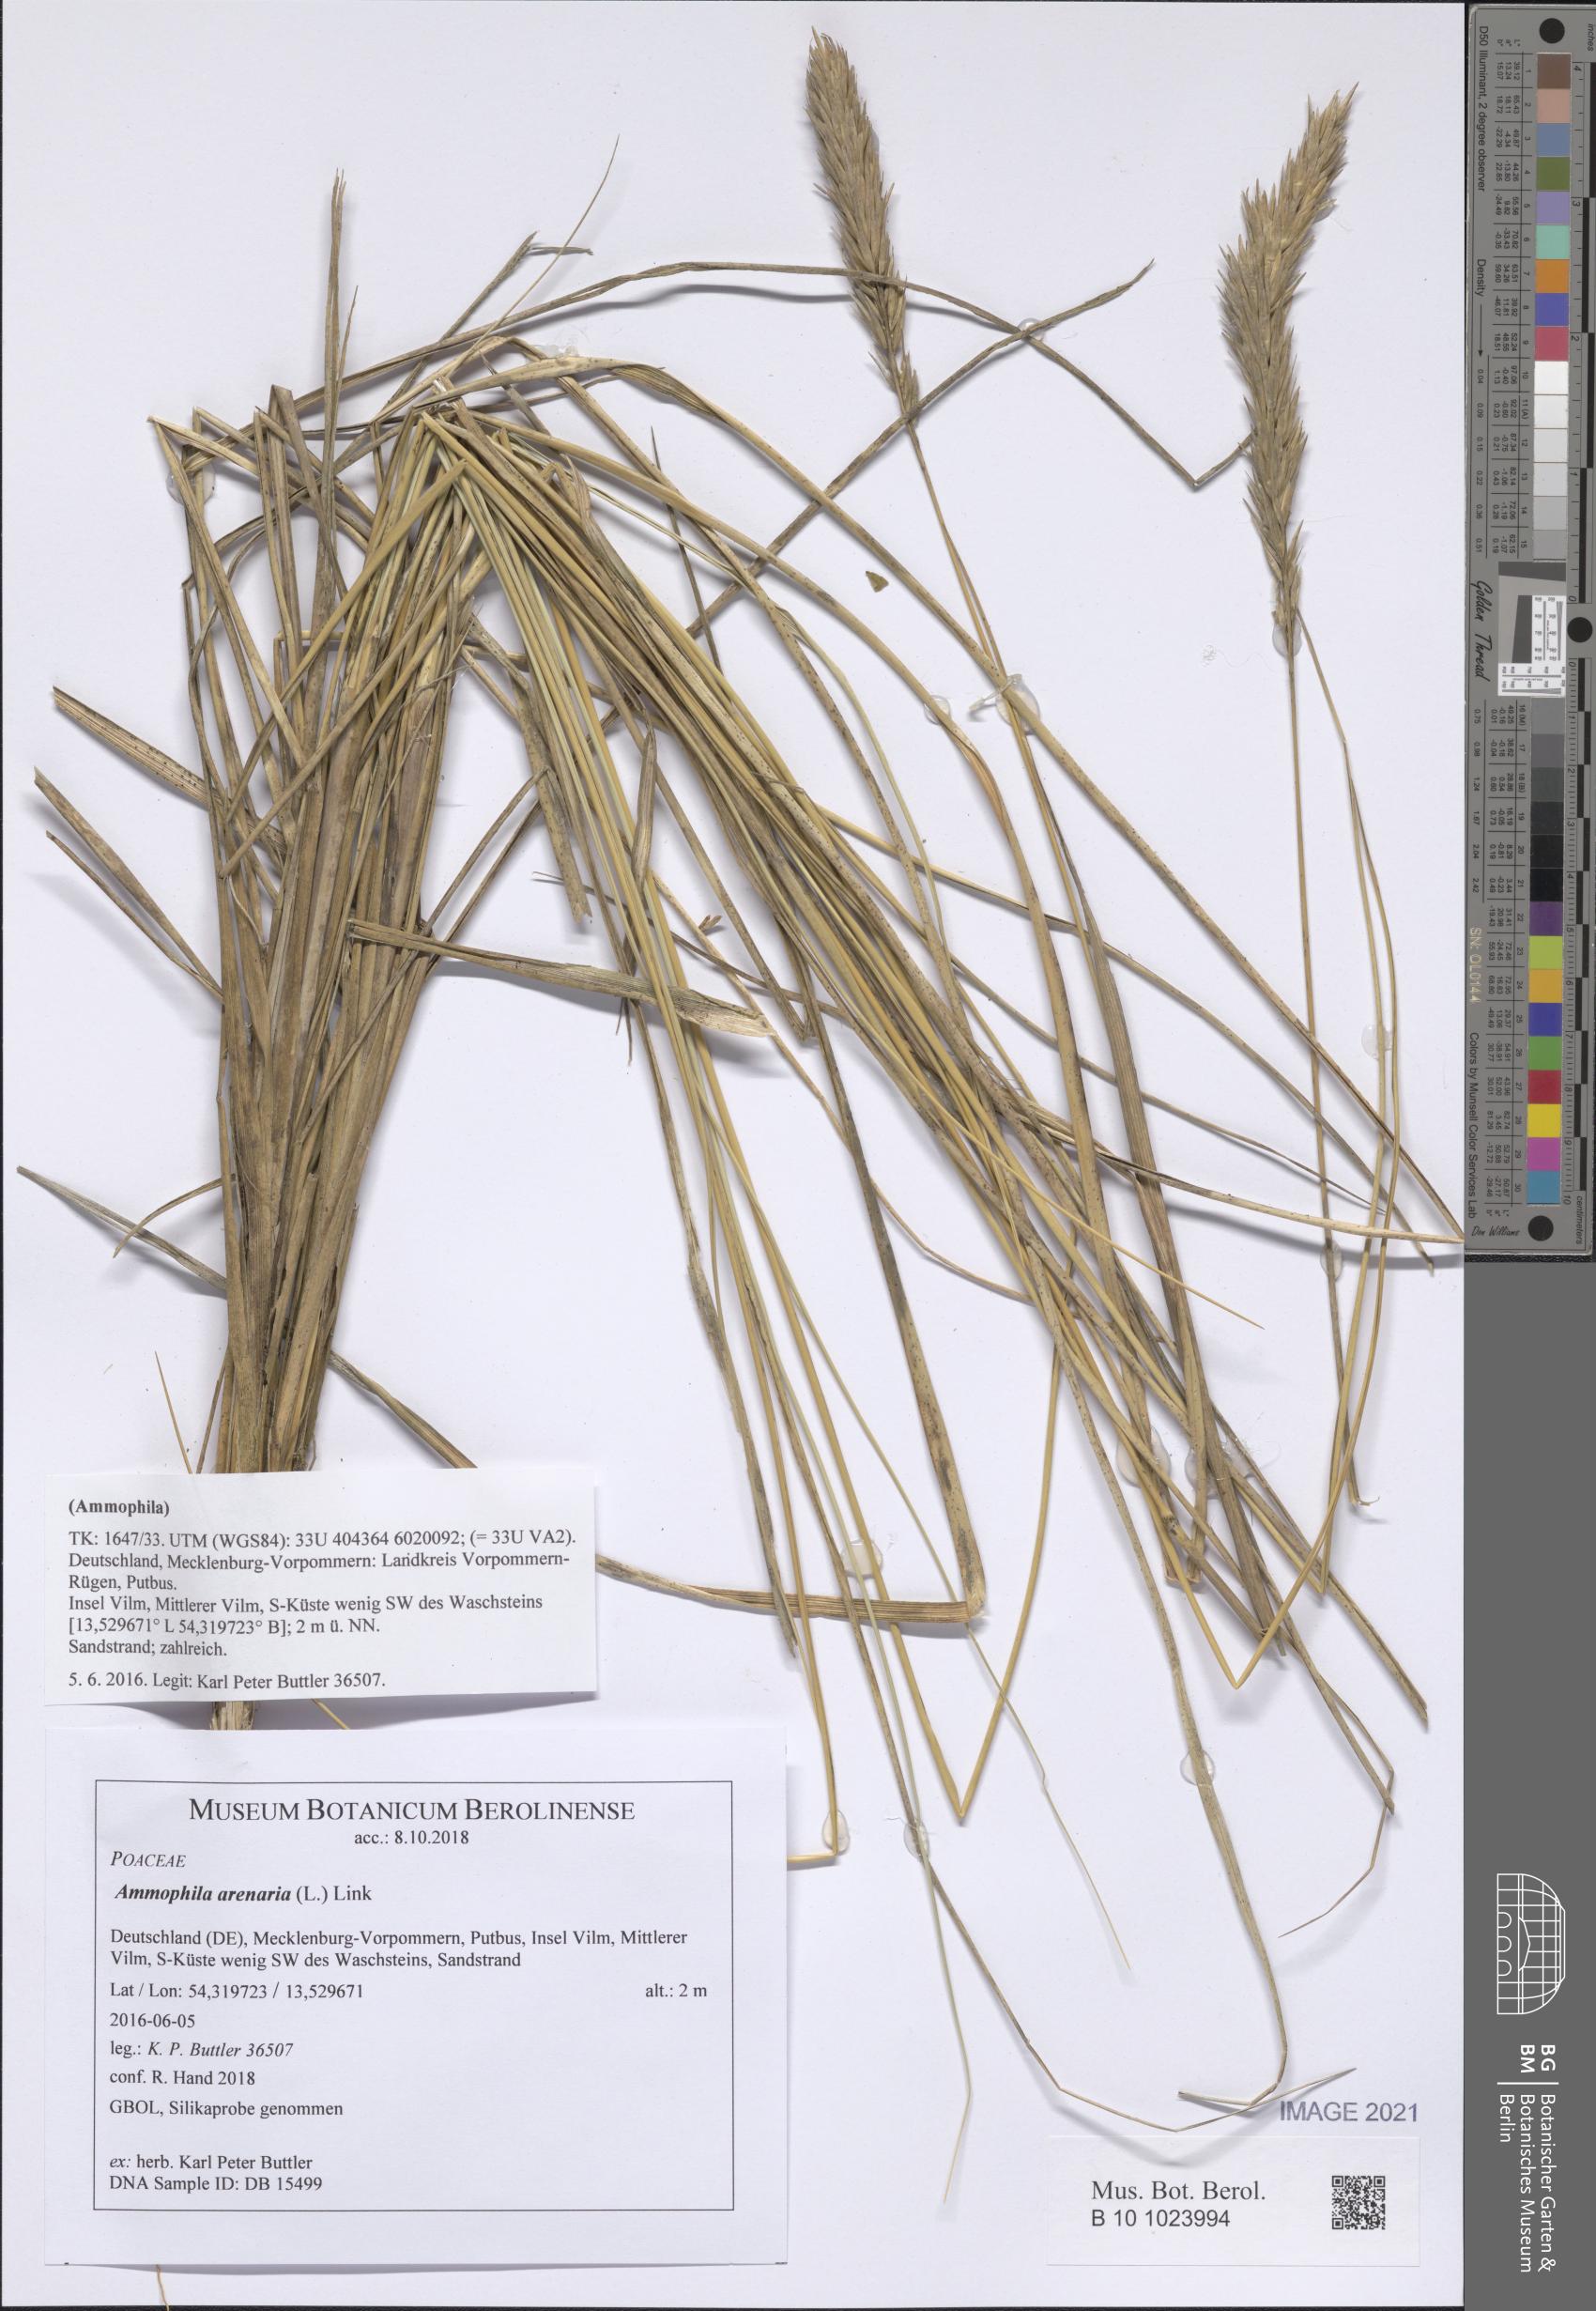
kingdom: Plantae
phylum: Tracheophyta
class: Liliopsida
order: Poales
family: Poaceae
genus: Calamagrostis
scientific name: Calamagrostis arenaria
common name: European beachgrass
